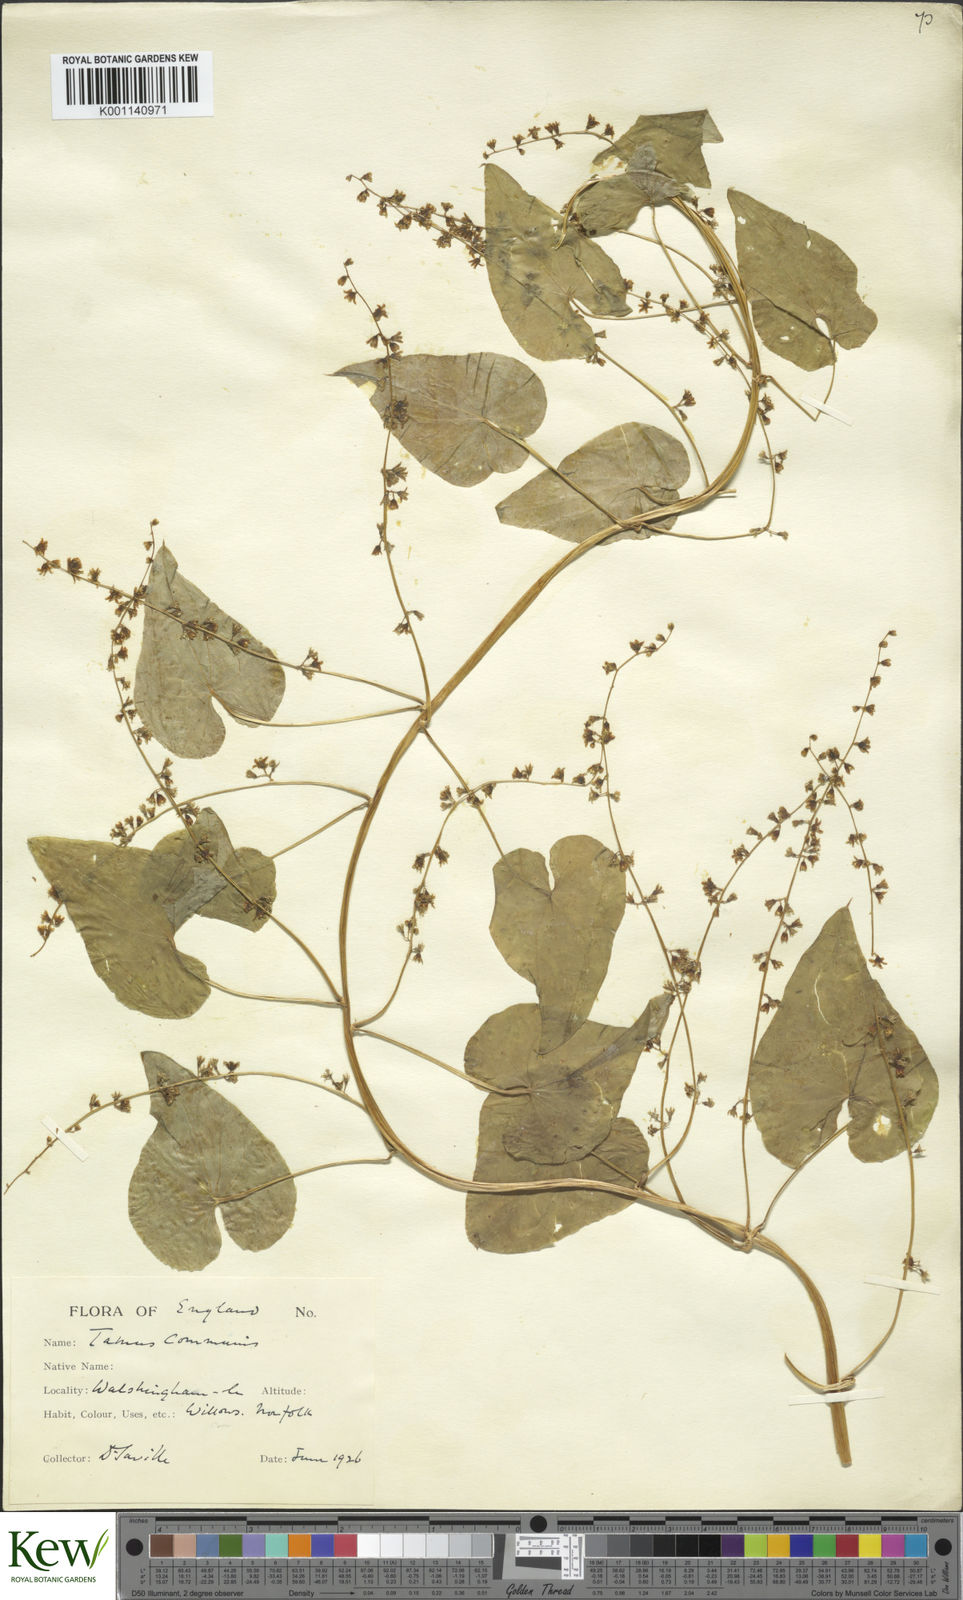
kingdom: Plantae
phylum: Tracheophyta
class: Liliopsida
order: Dioscoreales
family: Dioscoreaceae
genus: Dioscorea
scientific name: Dioscorea communis
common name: Black-bindweed
